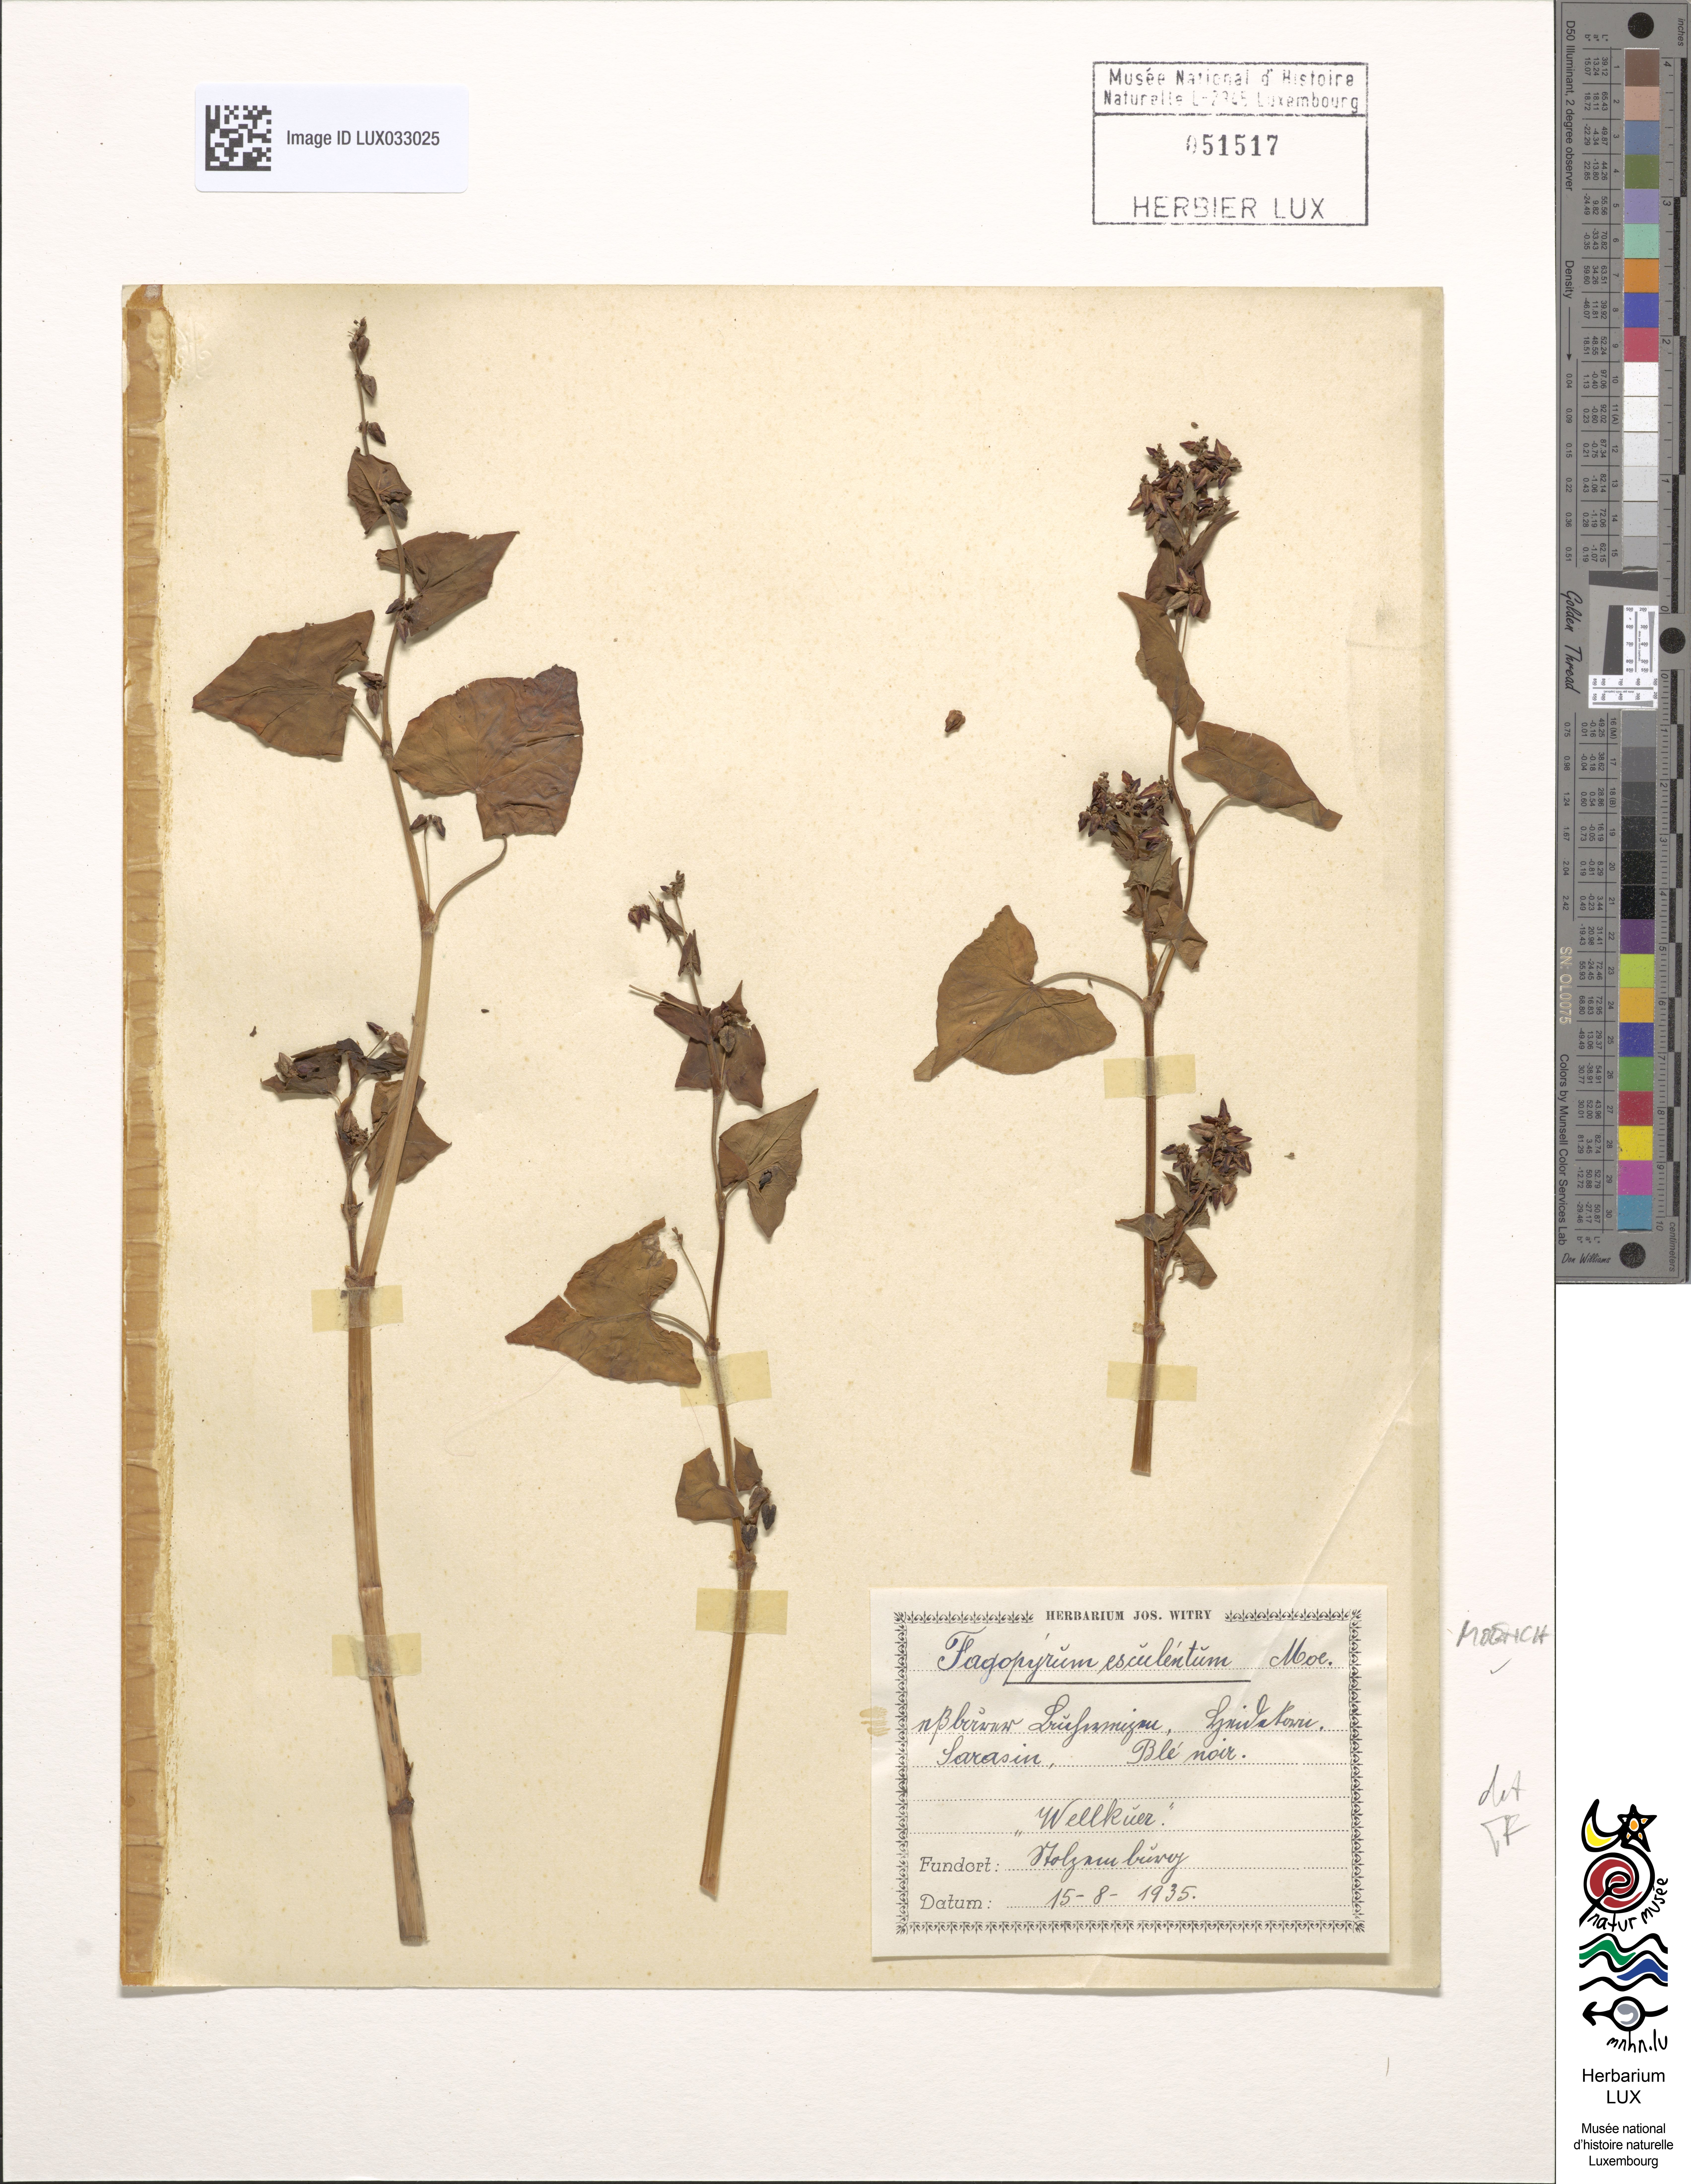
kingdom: Plantae
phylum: Tracheophyta
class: Magnoliopsida
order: Caryophyllales
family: Polygonaceae
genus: Fagopyrum
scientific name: Fagopyrum esculentum
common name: Buckwheat
